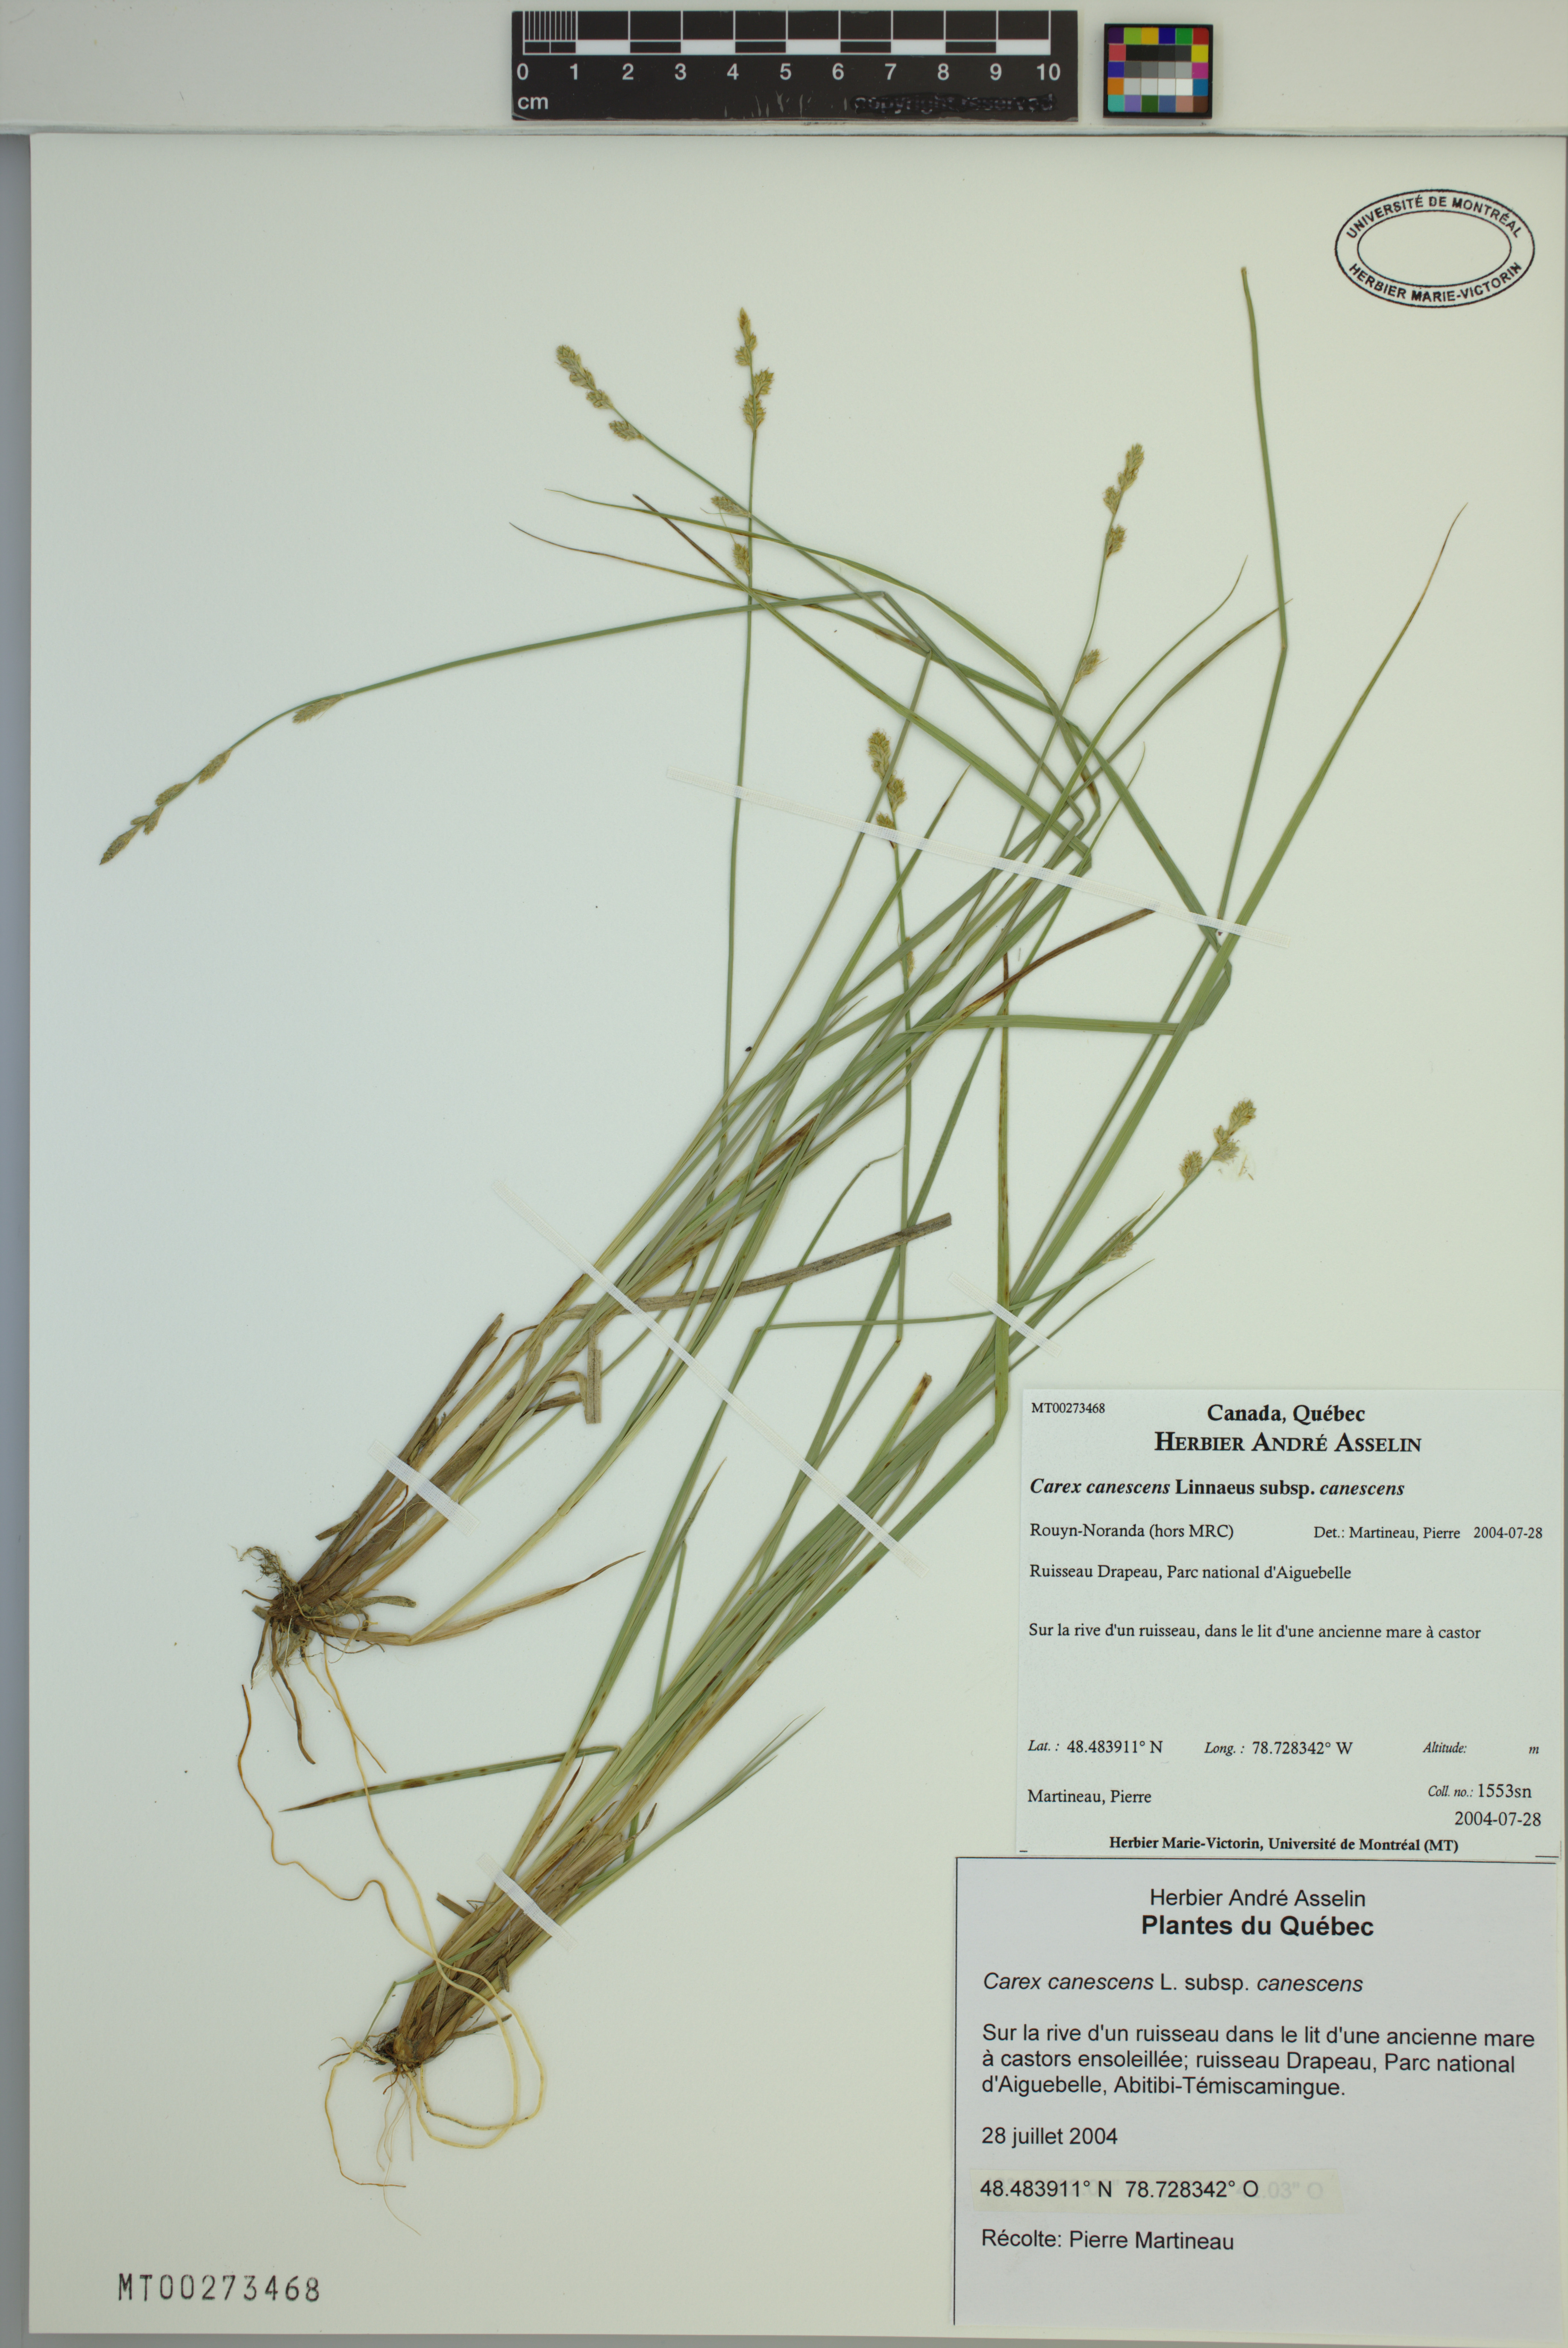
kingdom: Plantae
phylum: Tracheophyta
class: Liliopsida
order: Poales
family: Cyperaceae
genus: Carex
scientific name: Carex canescens
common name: White sedge
